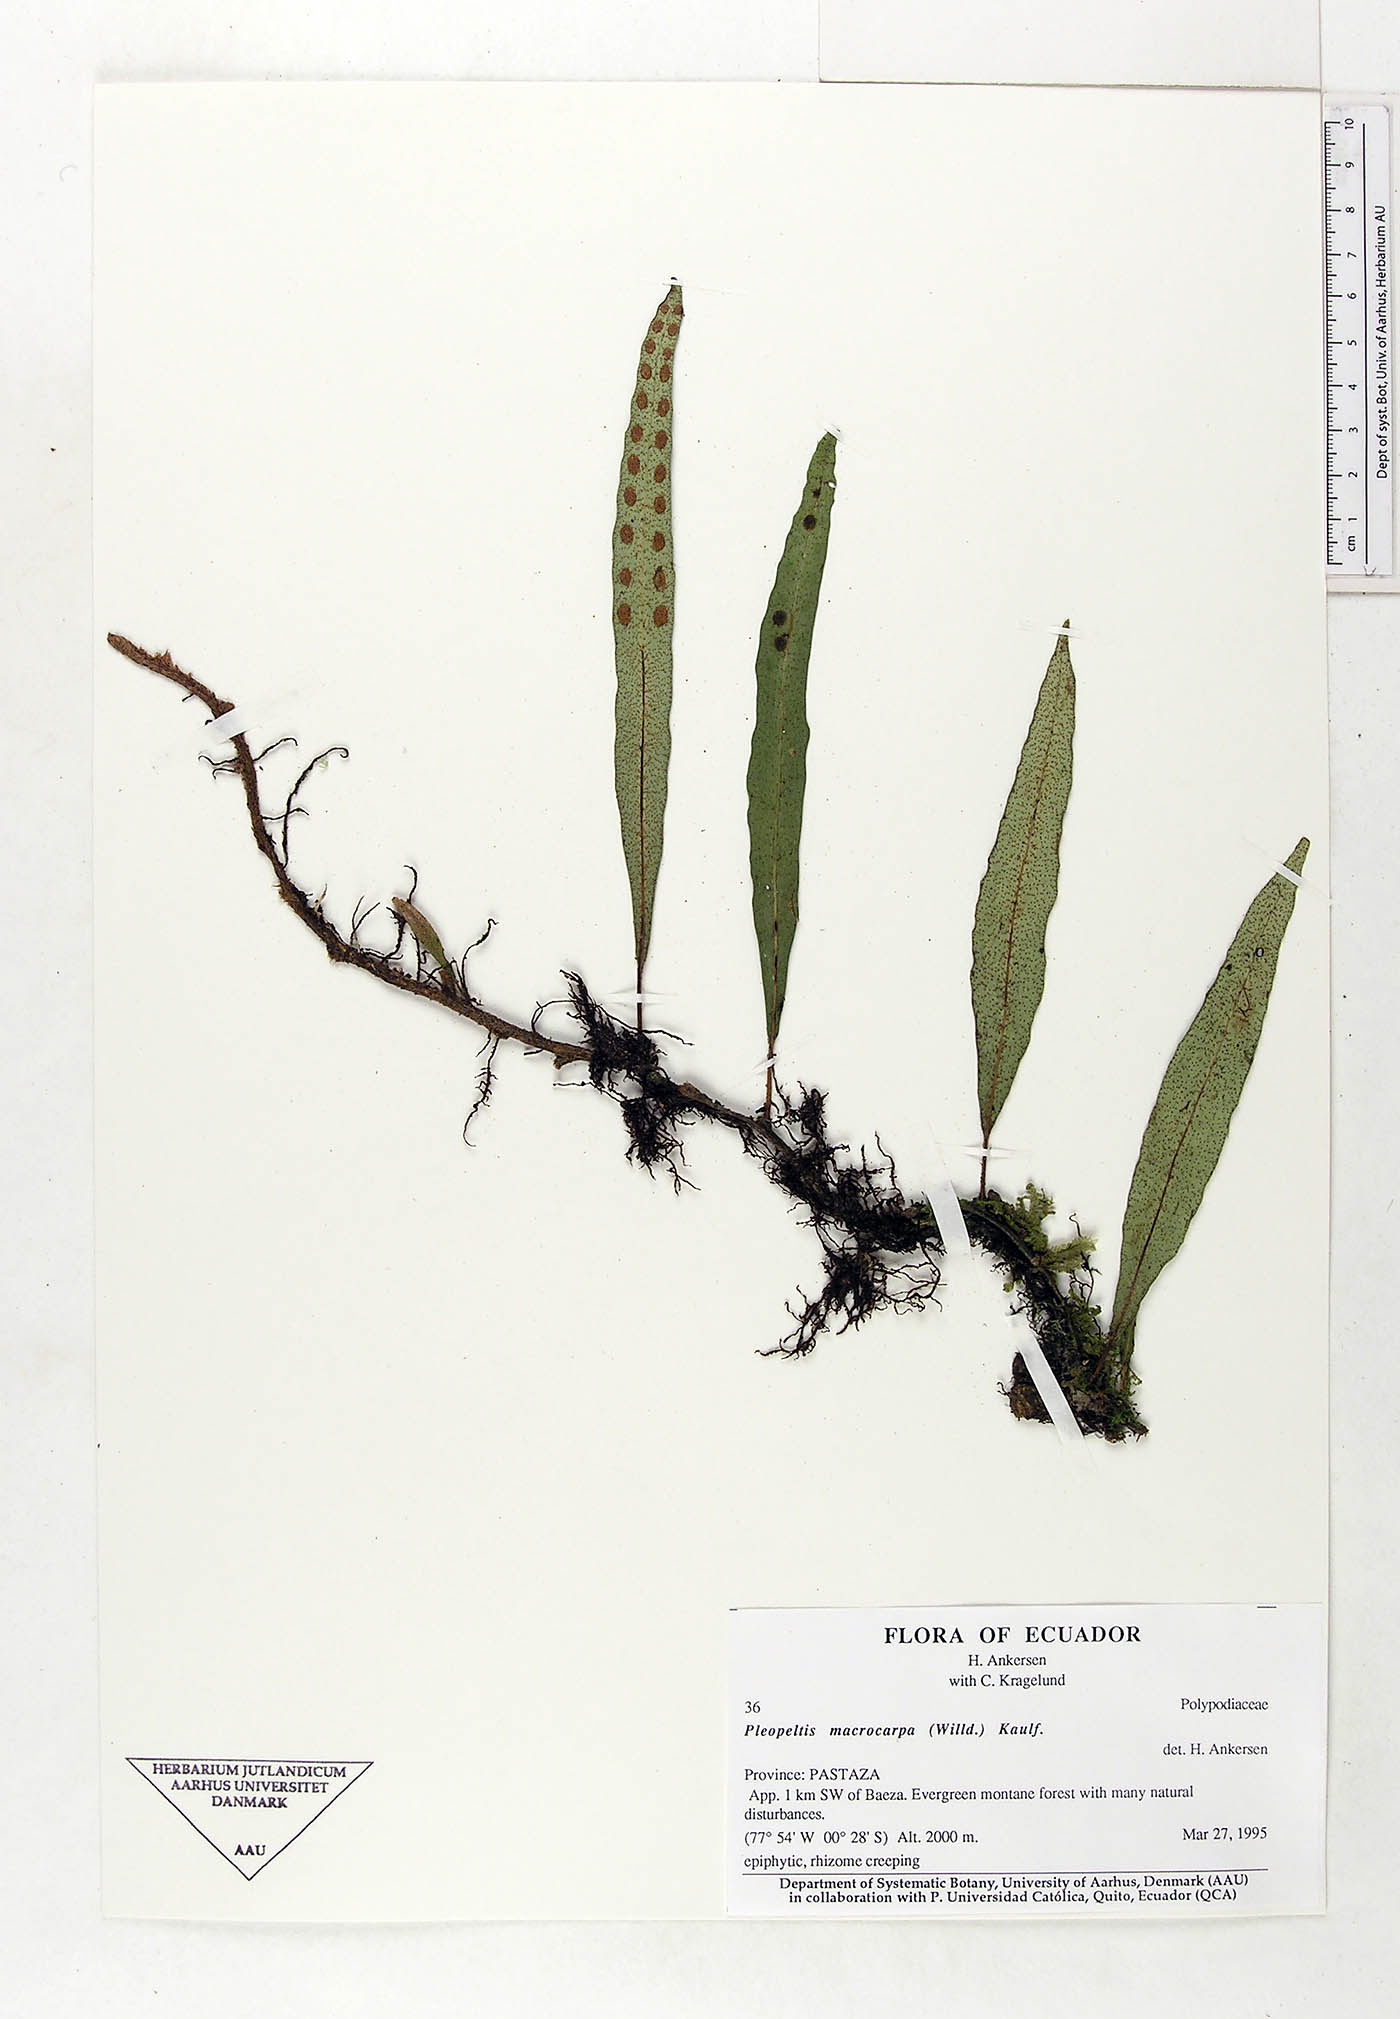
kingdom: Plantae
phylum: Tracheophyta
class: Polypodiopsida
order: Polypodiales
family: Polypodiaceae
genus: Pleopeltis
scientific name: Pleopeltis macrocarpa
